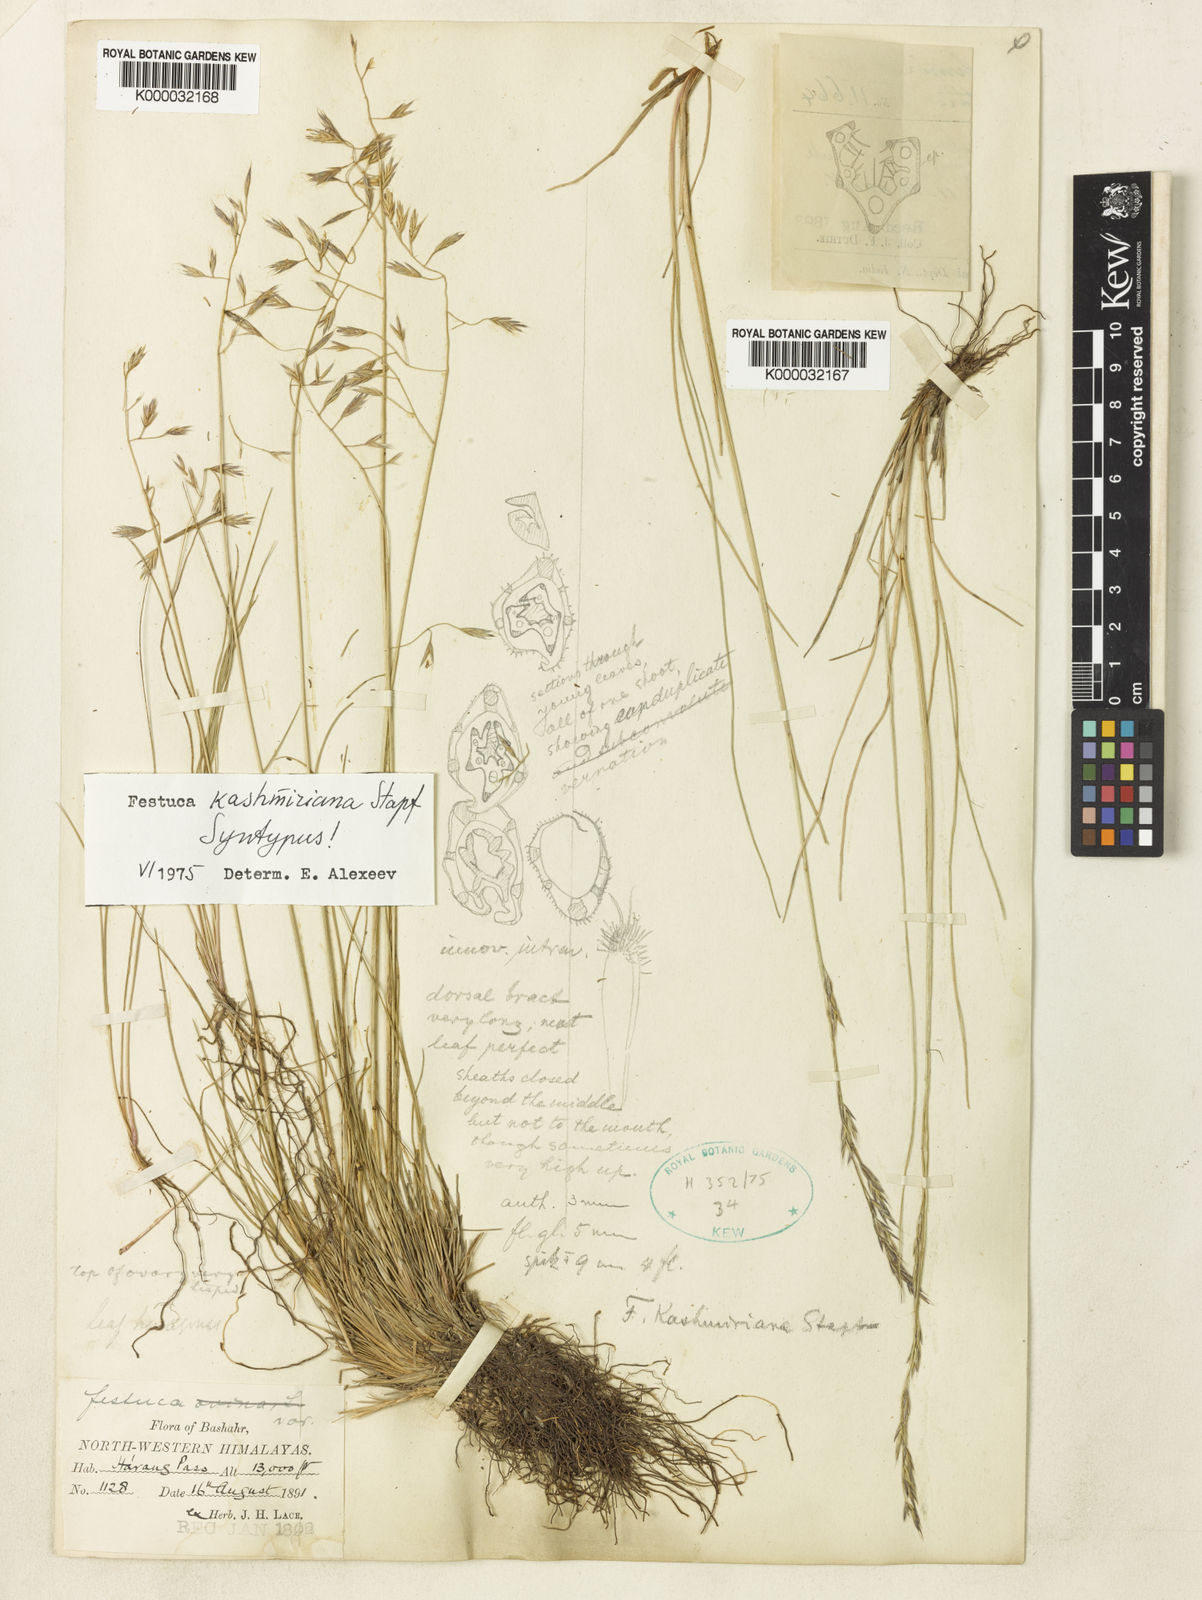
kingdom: Plantae
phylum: Tracheophyta
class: Liliopsida
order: Poales
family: Poaceae
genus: Festuca
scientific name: Festuca kashmiriana
